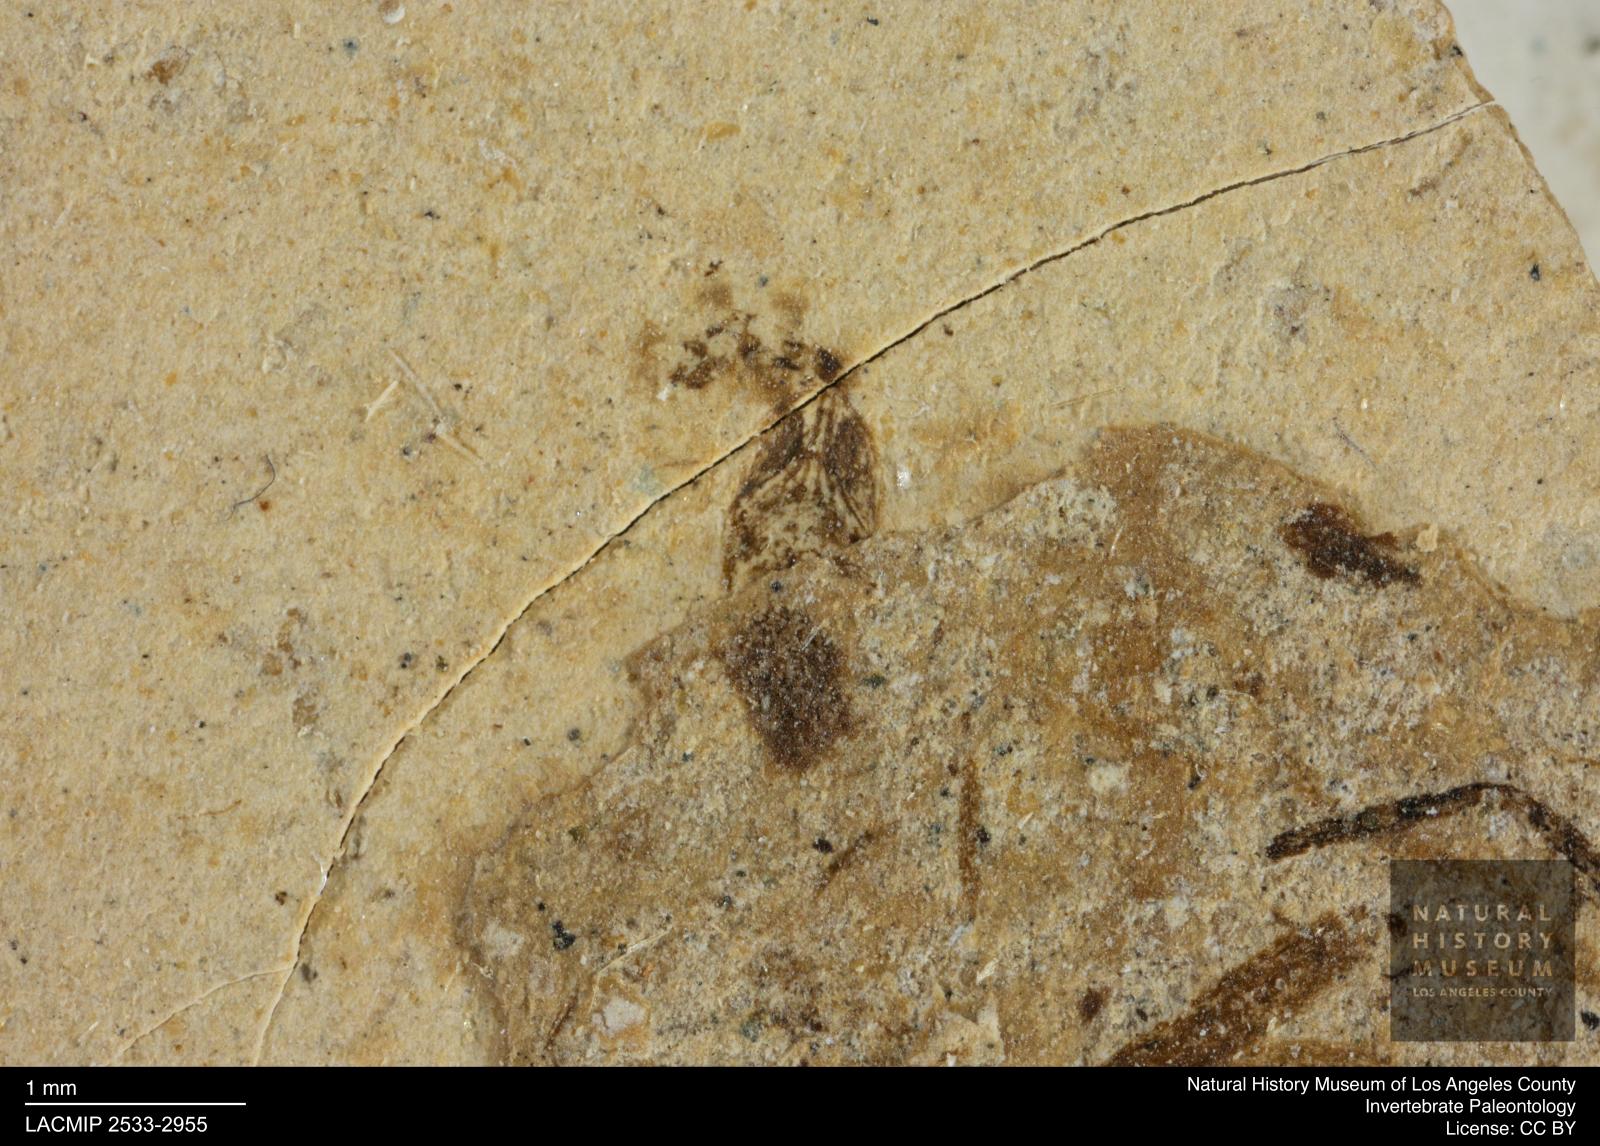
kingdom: Animalia
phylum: Arthropoda
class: Insecta
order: Thysanoptera
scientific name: Thysanoptera
